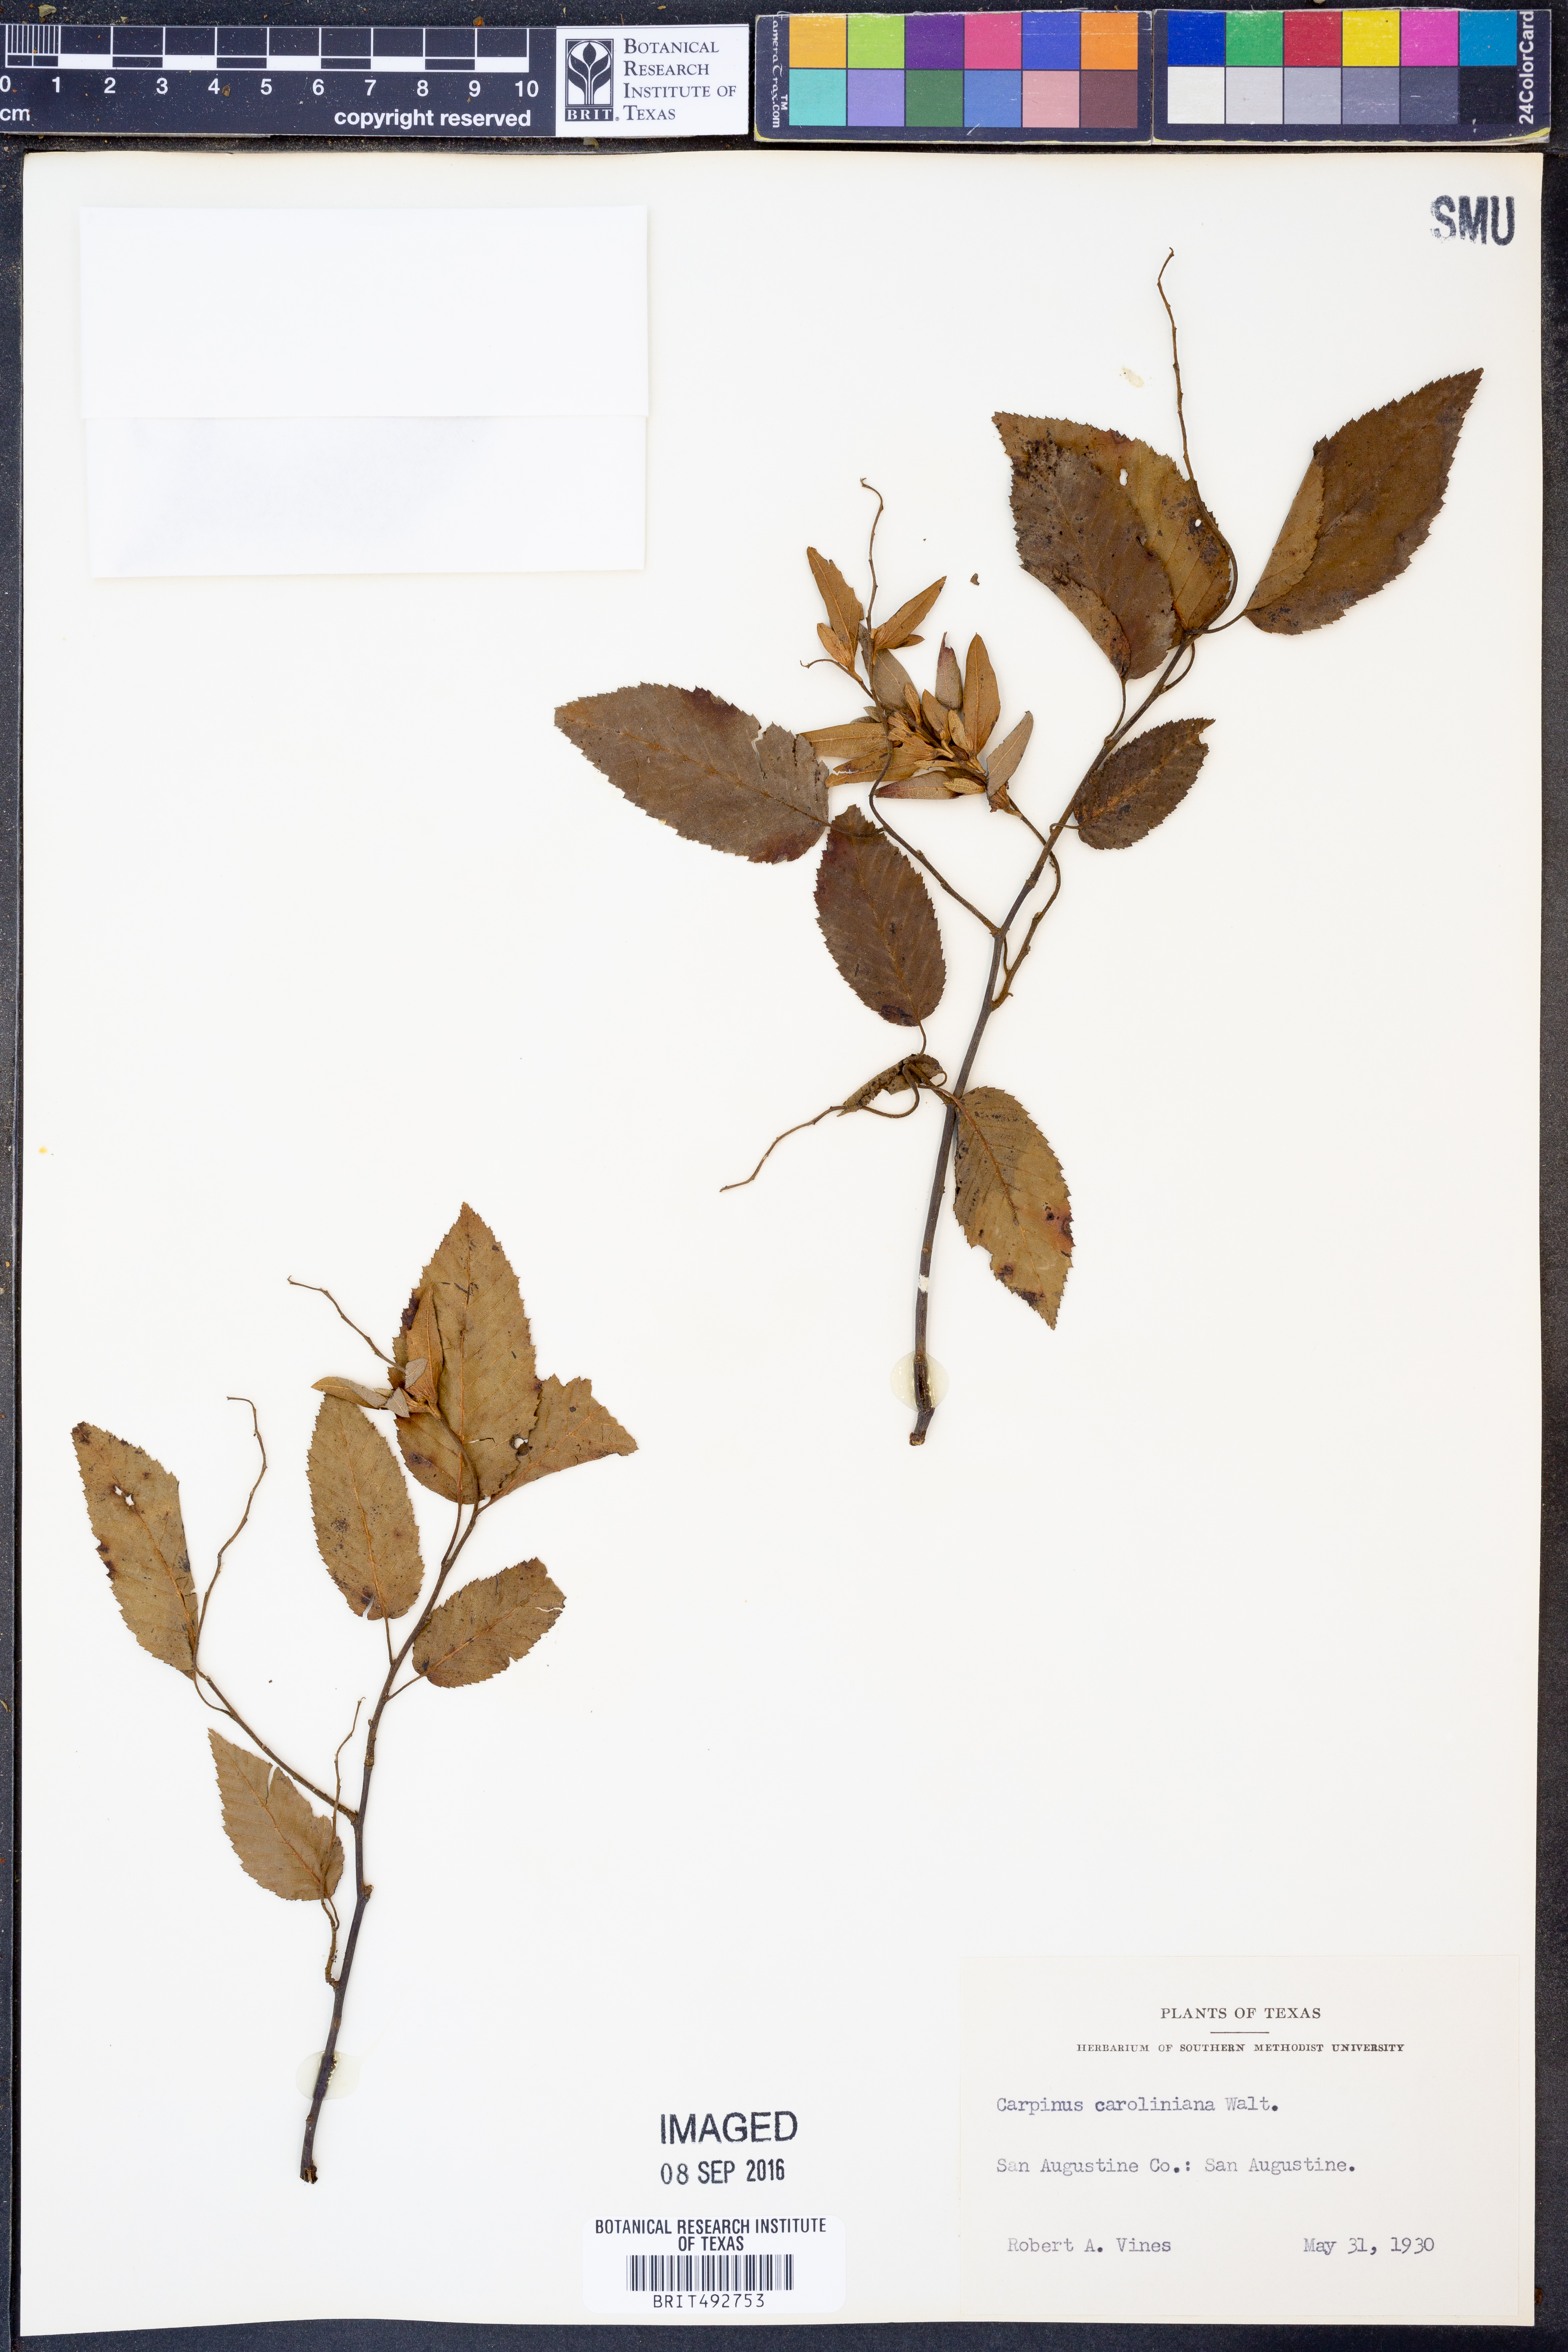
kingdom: Plantae
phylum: Tracheophyta
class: Magnoliopsida
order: Fagales
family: Betulaceae
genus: Carpinus
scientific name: Carpinus caroliniana
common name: American hornbeam
